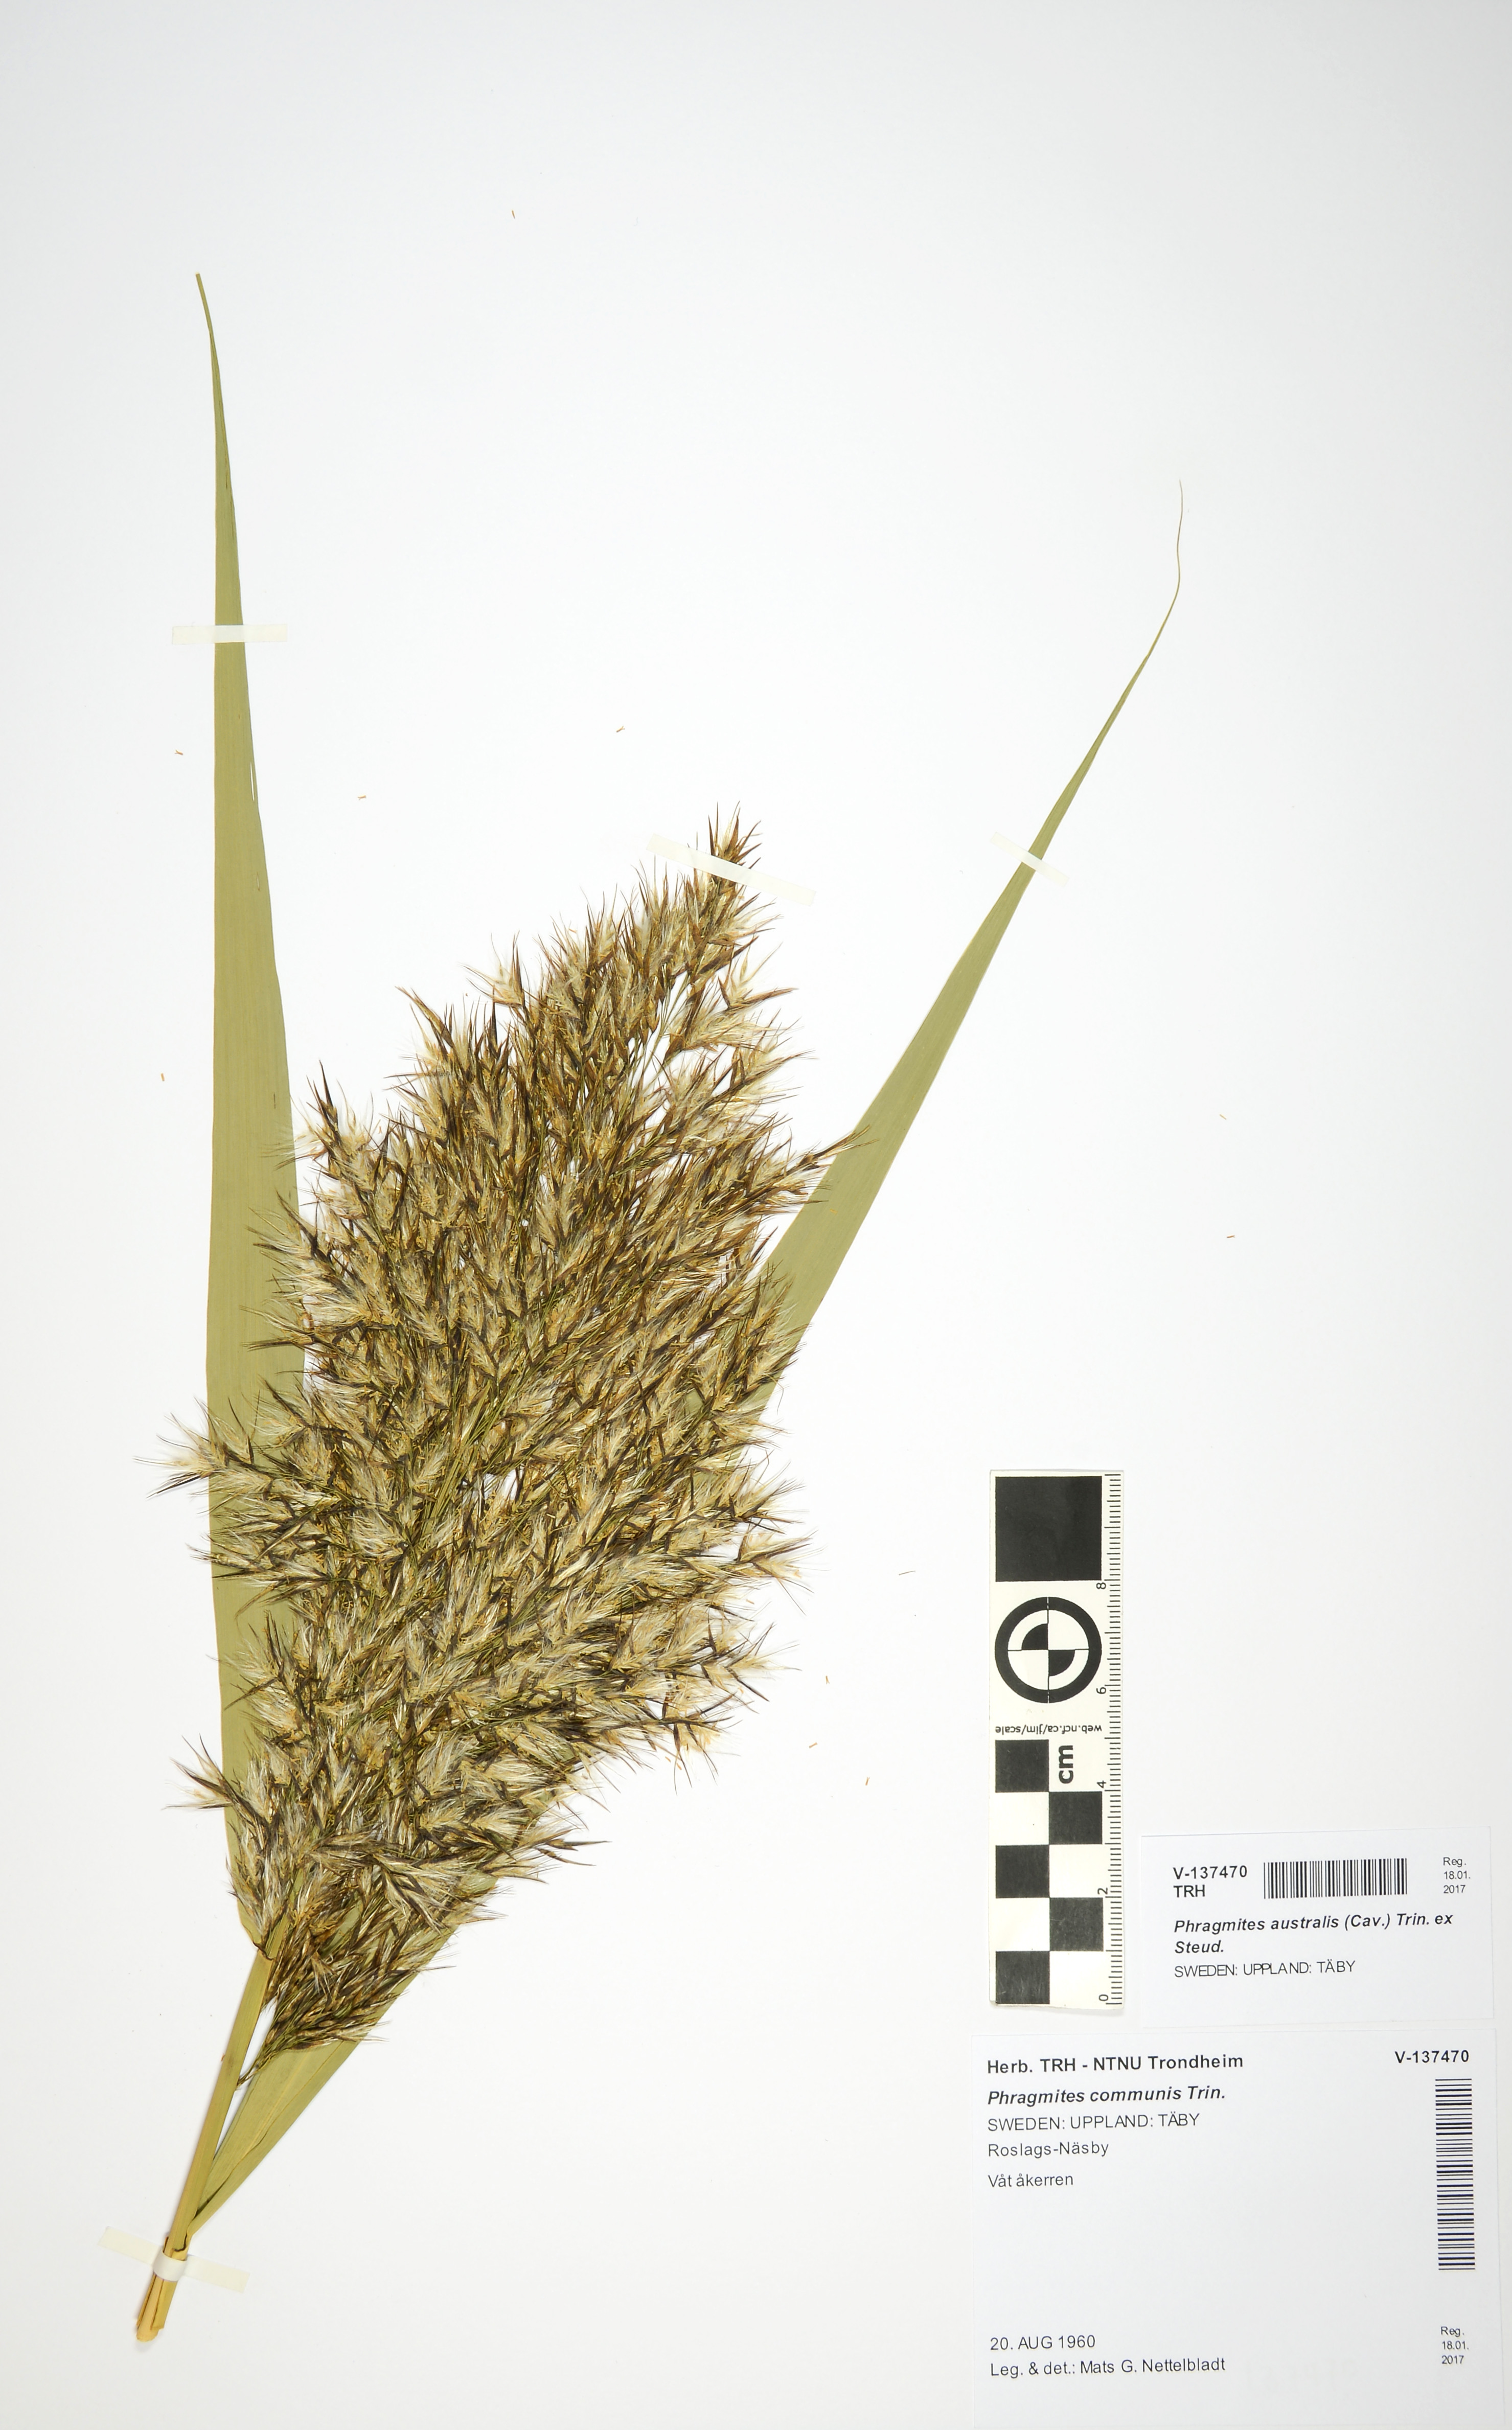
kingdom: Plantae
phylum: Tracheophyta
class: Liliopsida
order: Poales
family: Poaceae
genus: Phragmites
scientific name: Phragmites australis
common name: Common reed
